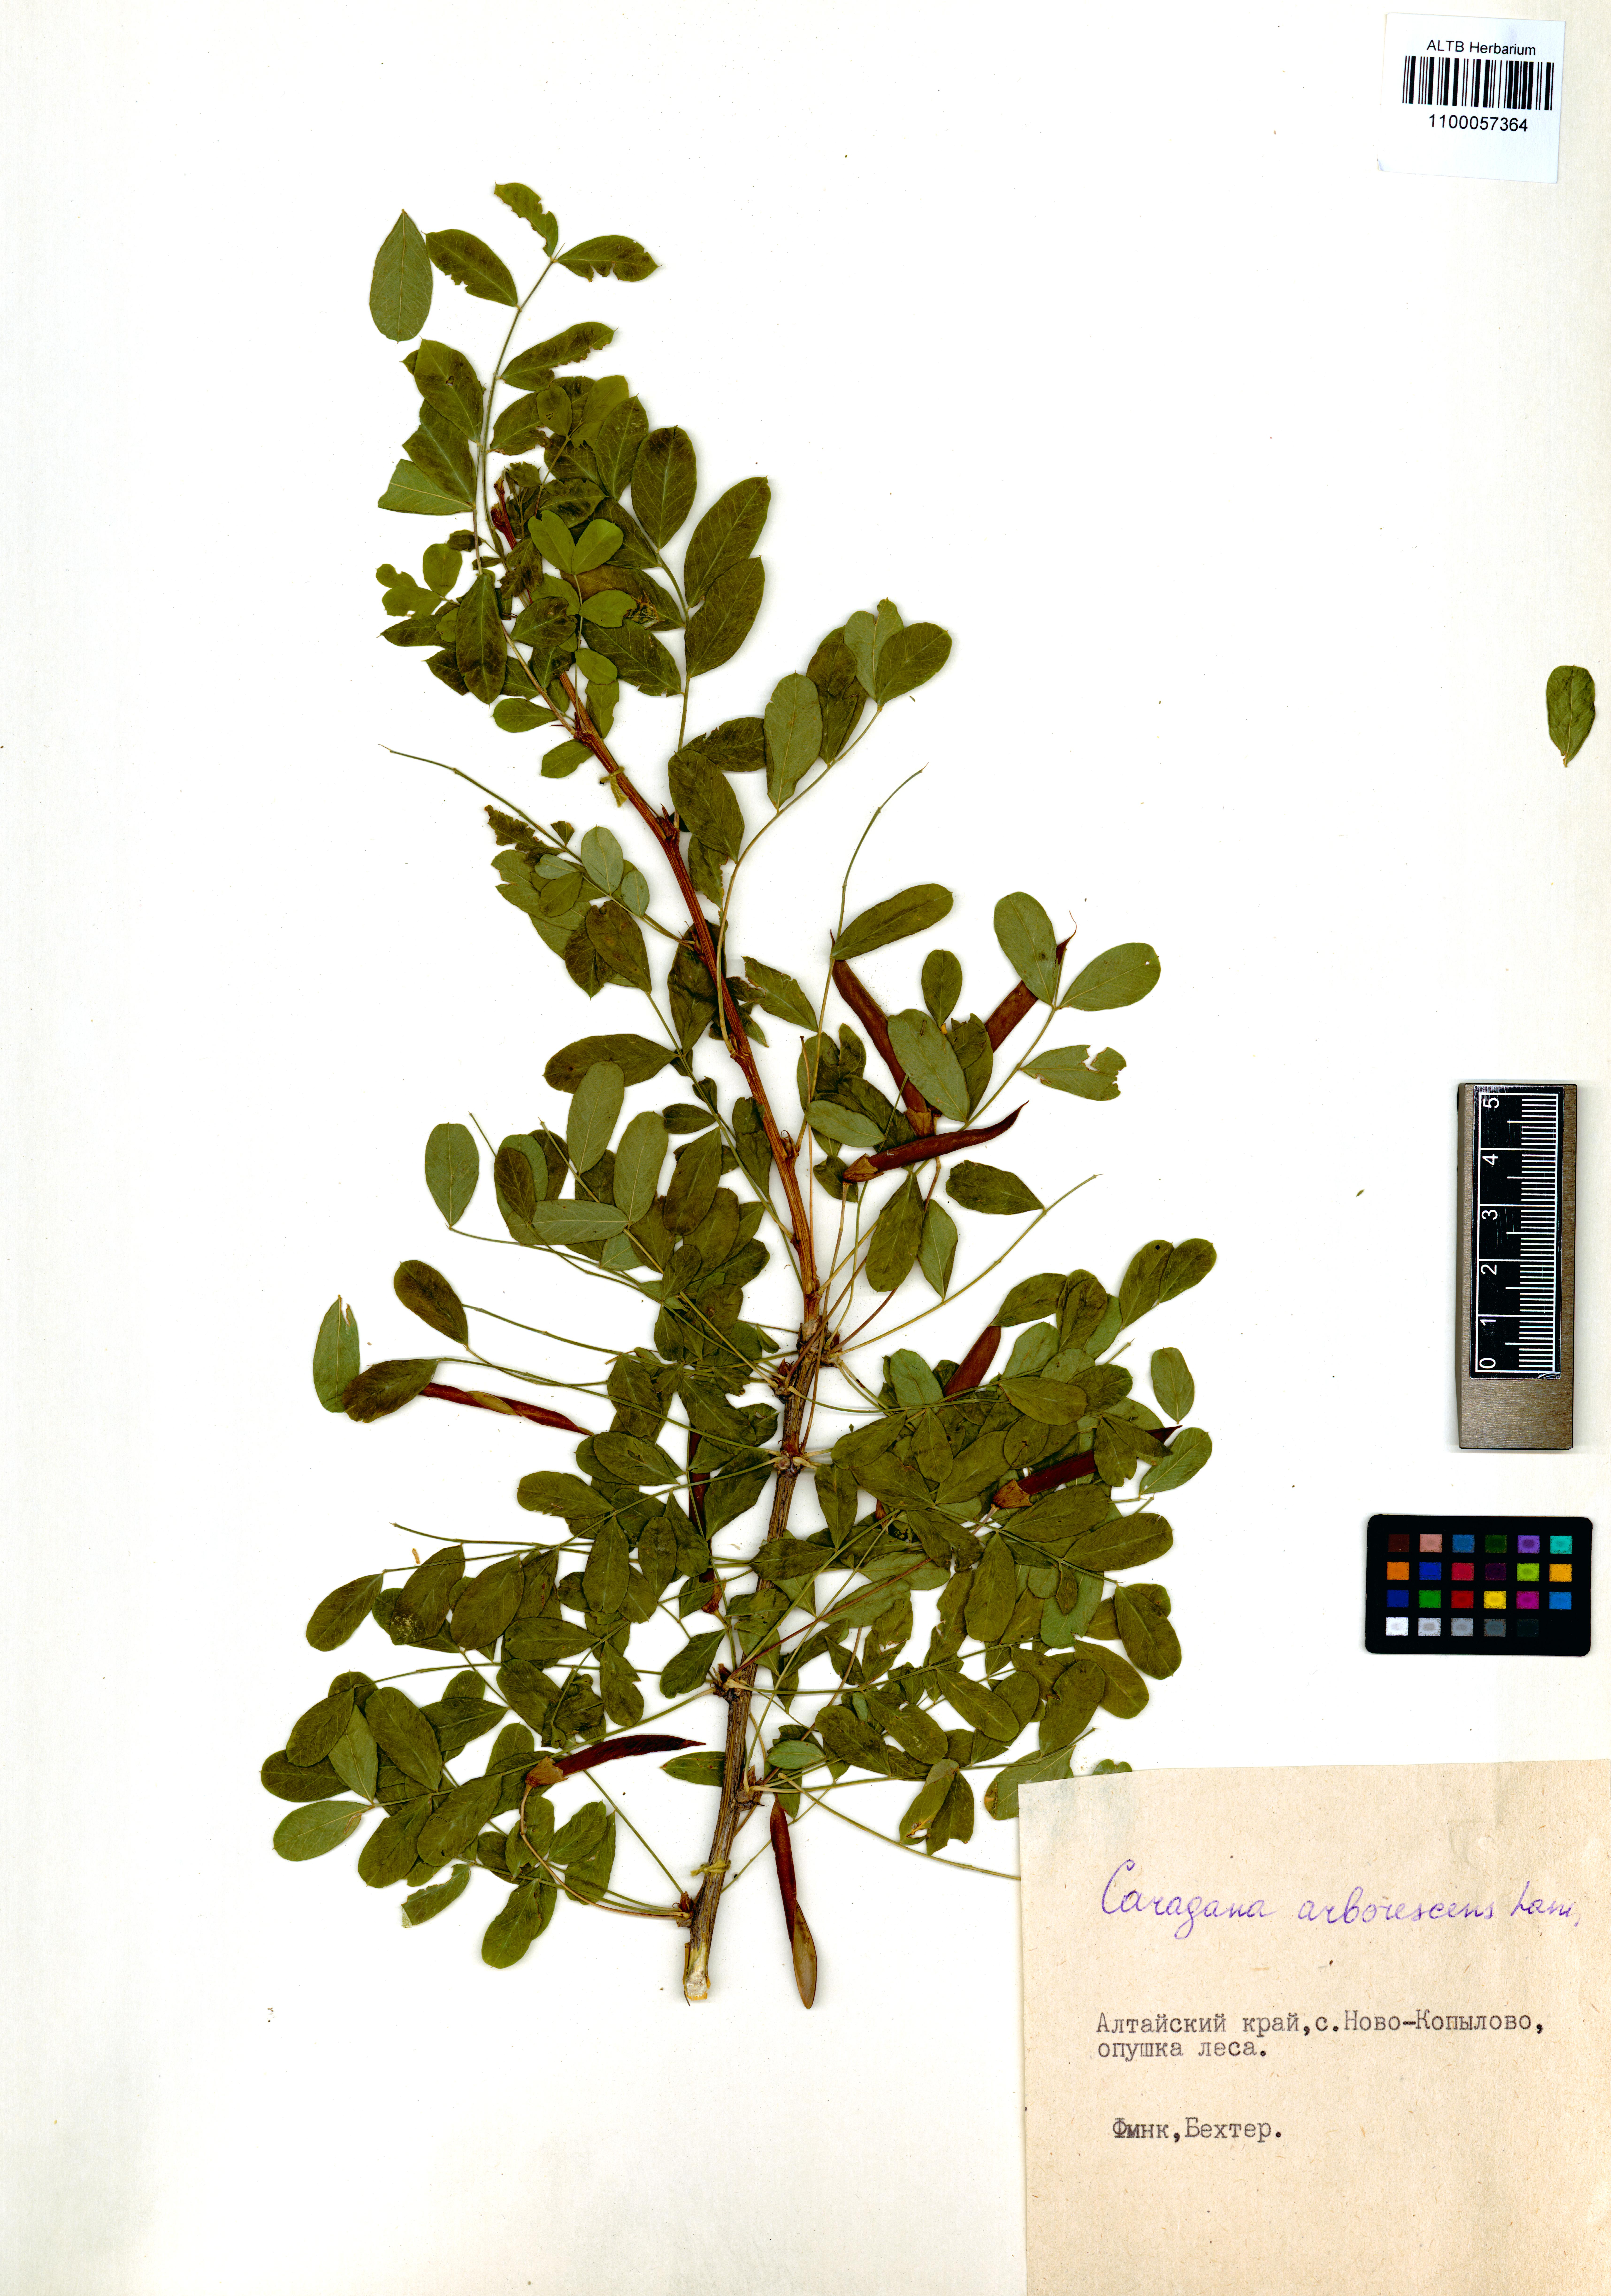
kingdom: Plantae
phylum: Tracheophyta
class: Magnoliopsida
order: Fabales
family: Fabaceae
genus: Caragana
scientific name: Caragana arborescens
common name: Siberian peashrub
